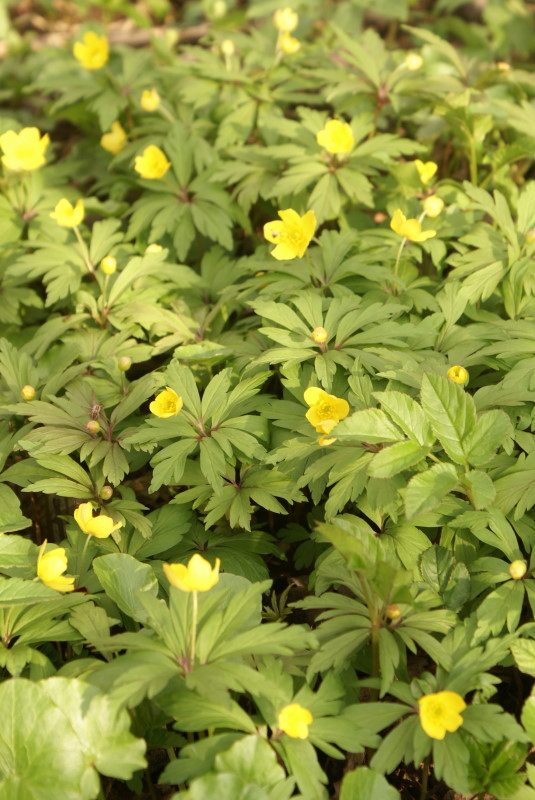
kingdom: Plantae
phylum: Tracheophyta
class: Magnoliopsida
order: Ranunculales
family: Ranunculaceae
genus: Anemone
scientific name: Anemone ranunculoides
